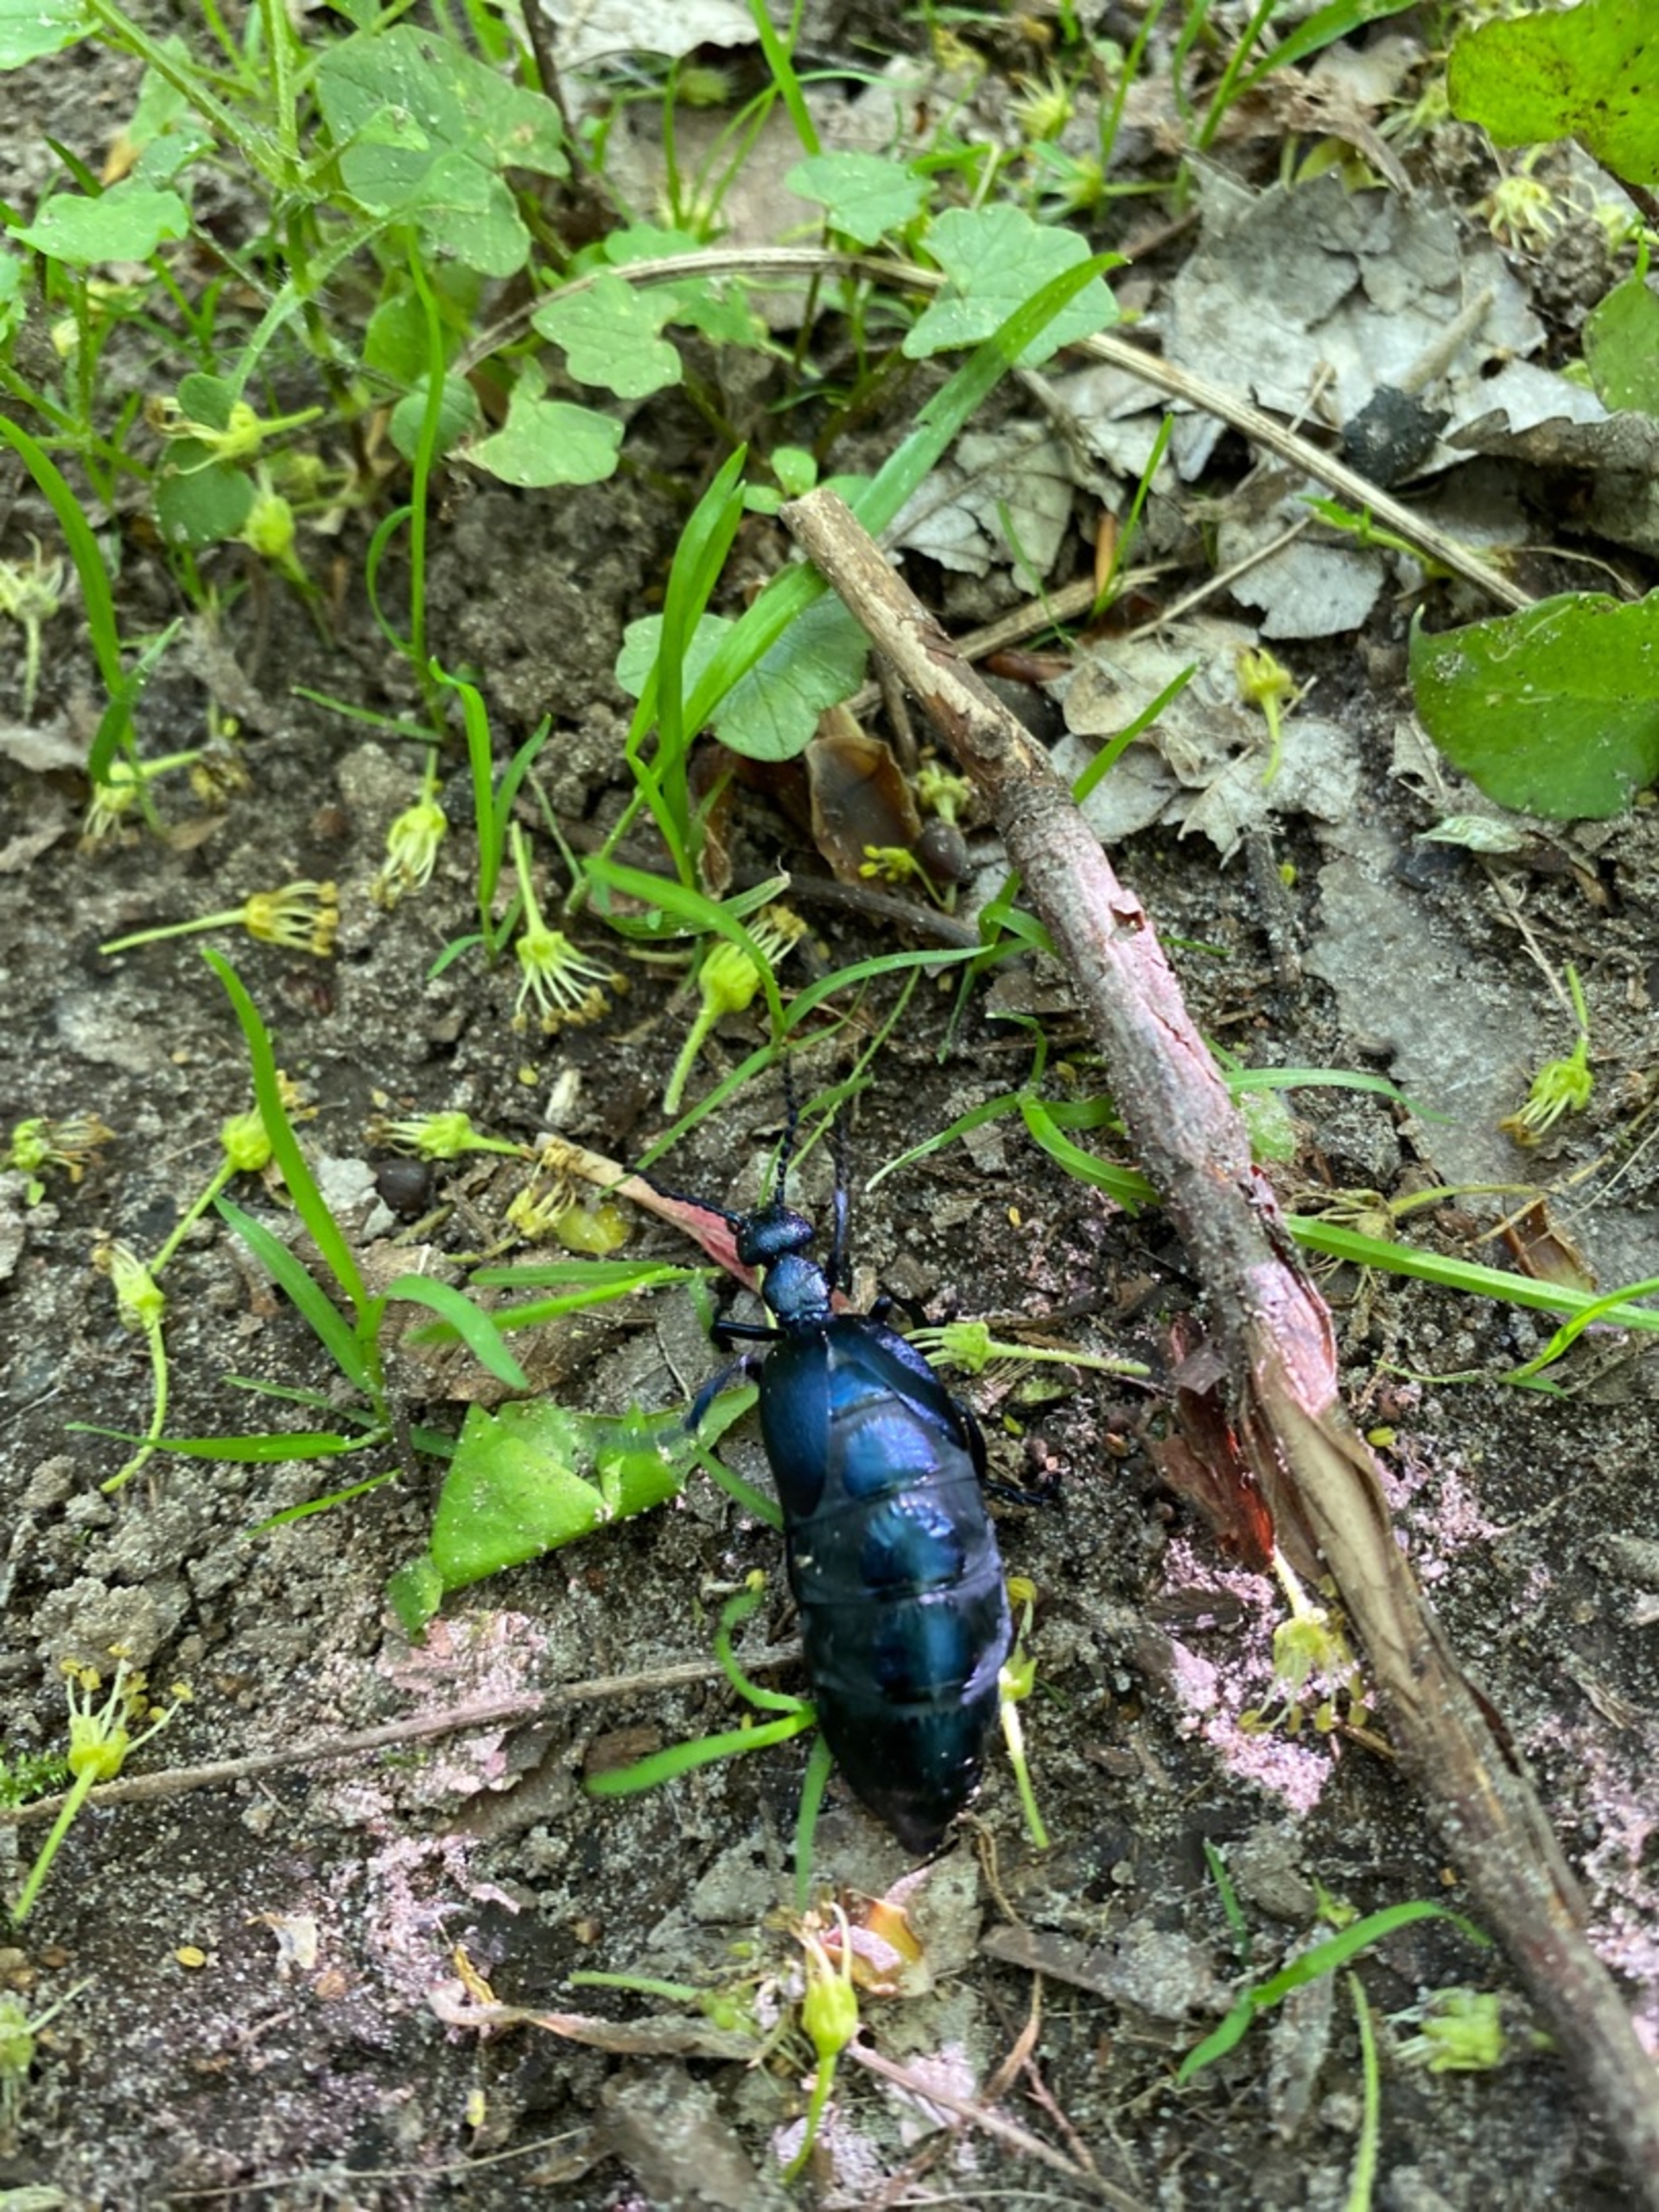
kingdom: Animalia
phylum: Arthropoda
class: Insecta
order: Coleoptera
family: Meloidae
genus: Meloe
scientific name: Meloe violaceus
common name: Blå oliebille
